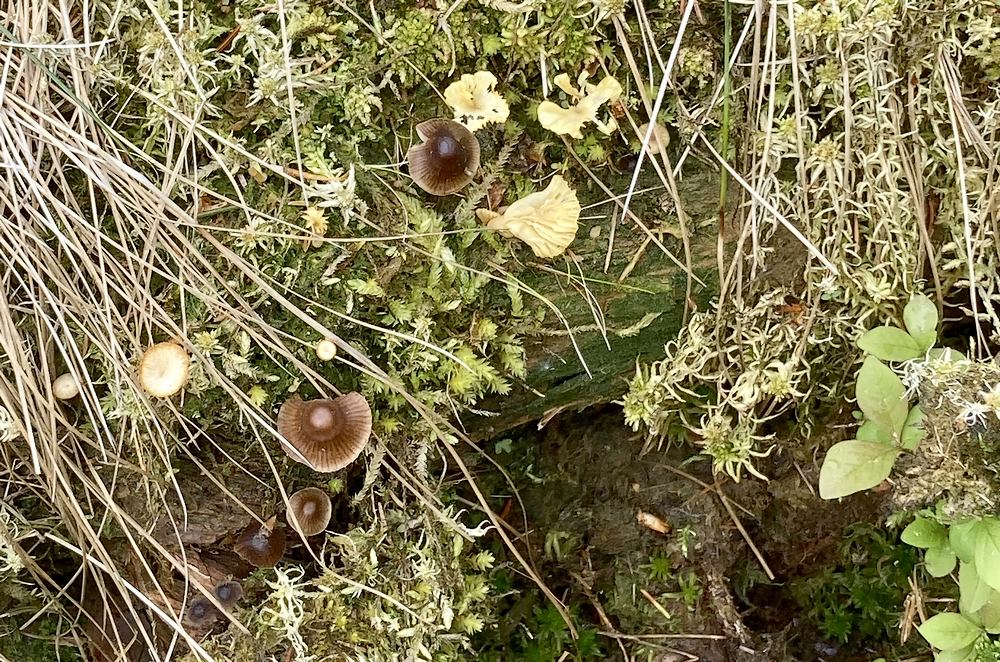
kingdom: Fungi
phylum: Basidiomycota
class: Agaricomycetes
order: Agaricales
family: Mycenaceae
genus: Mycena
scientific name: Mycena silvae-nigrae
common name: tidlig huesvamp
